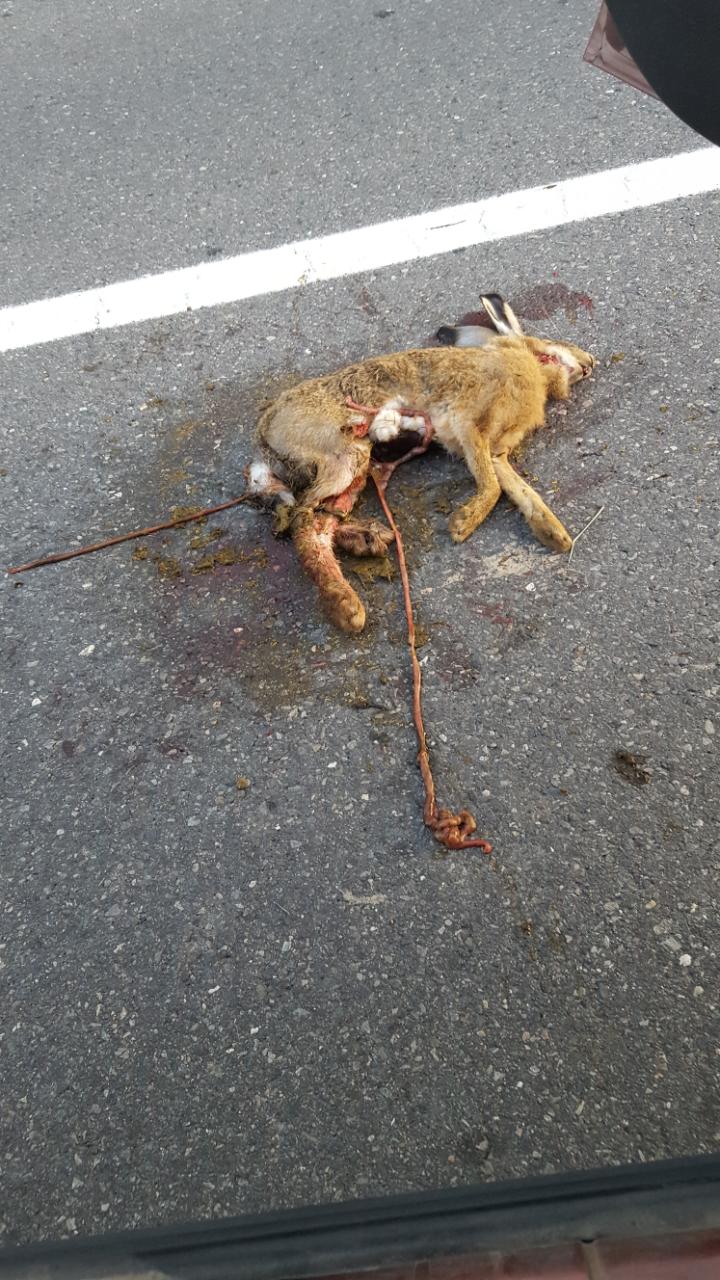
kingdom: Animalia
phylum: Chordata
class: Mammalia
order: Lagomorpha
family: Leporidae
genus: Lepus
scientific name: Lepus europaeus
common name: European hare
